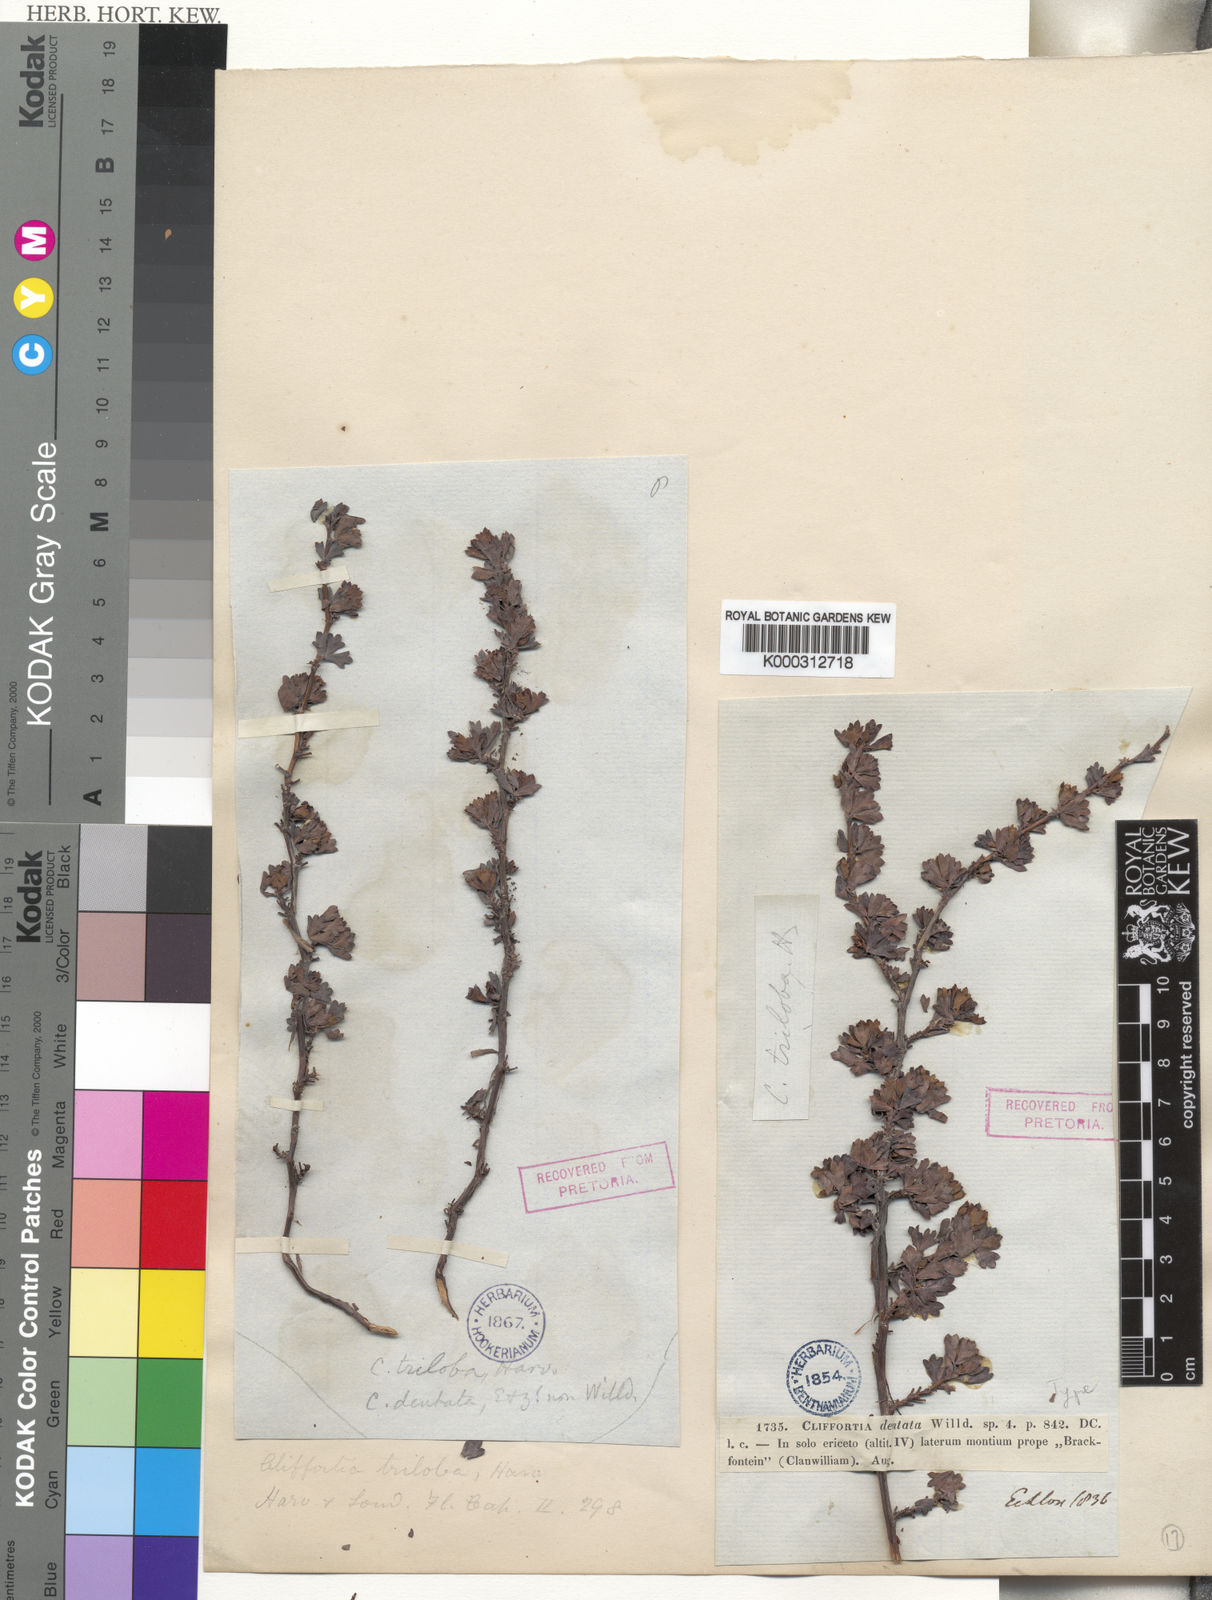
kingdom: Plantae
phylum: Tracheophyta
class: Magnoliopsida
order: Rosales
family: Rosaceae
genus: Cliffortia
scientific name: Cliffortia
